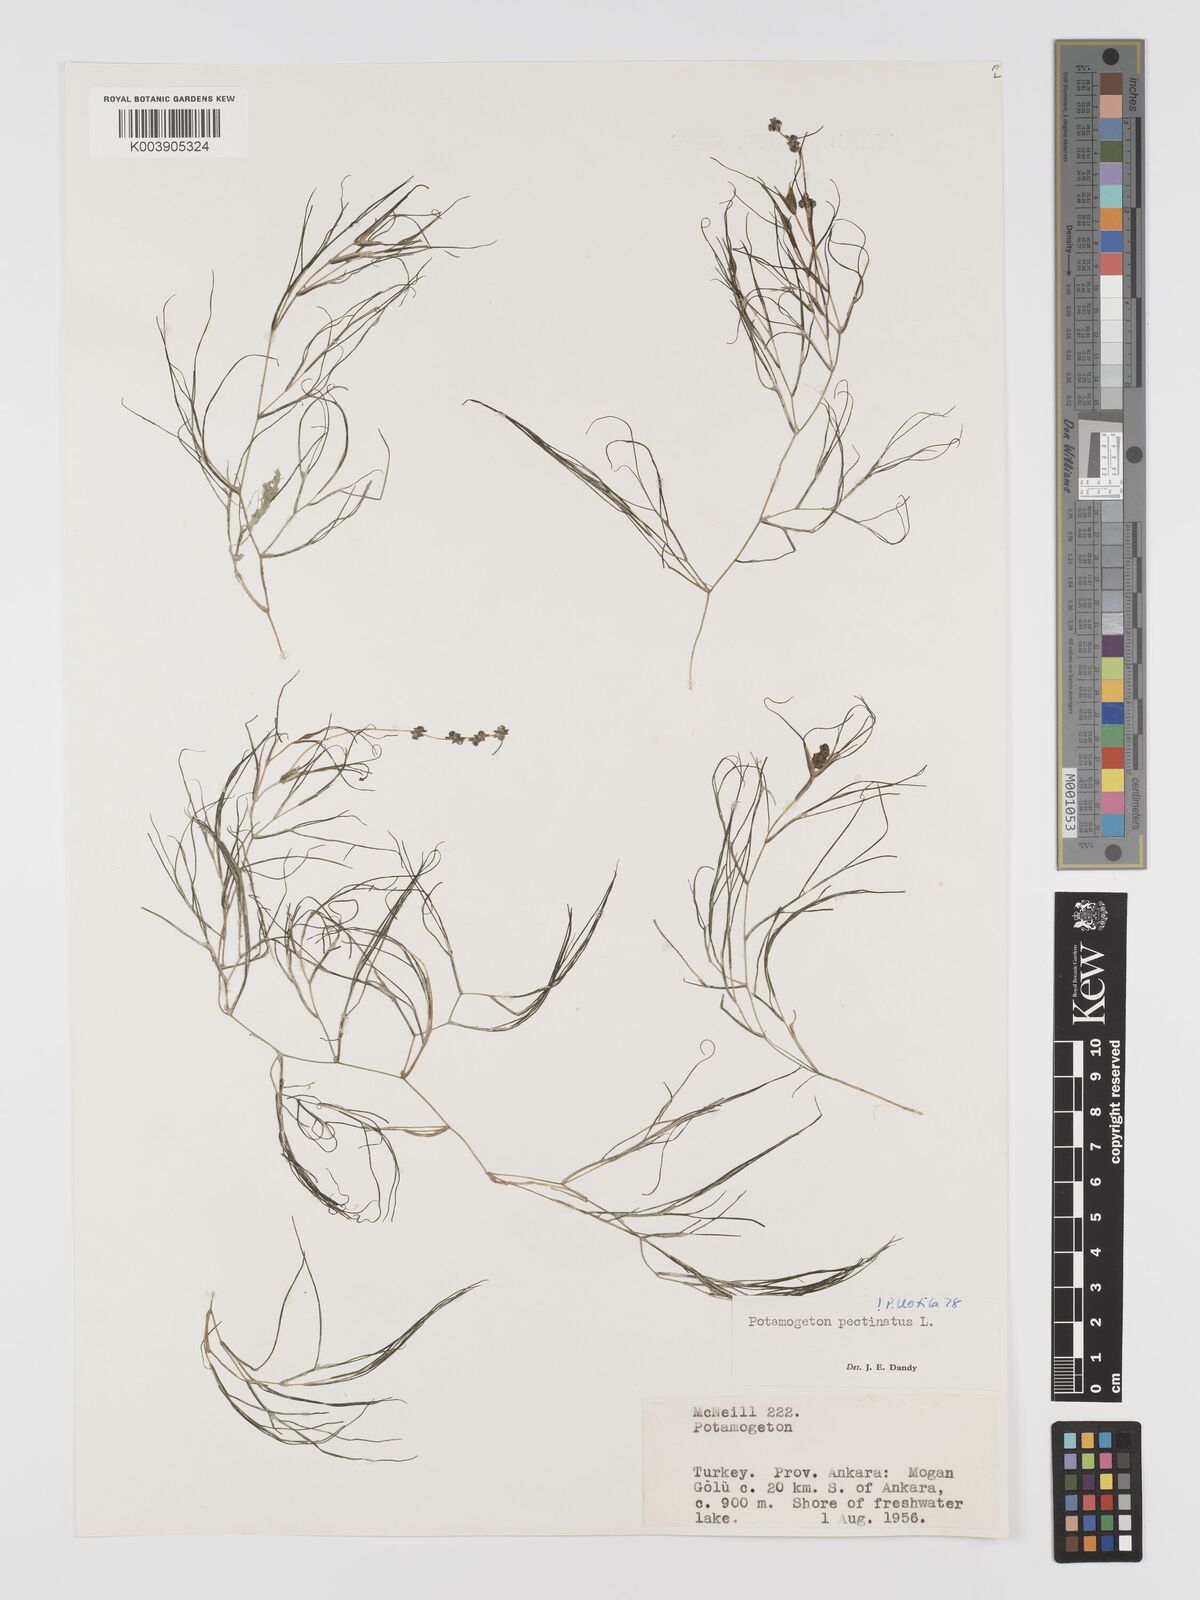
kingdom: Plantae
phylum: Tracheophyta
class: Liliopsida
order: Alismatales
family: Potamogetonaceae
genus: Stuckenia
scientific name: Stuckenia pectinata
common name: Sago pondweed
